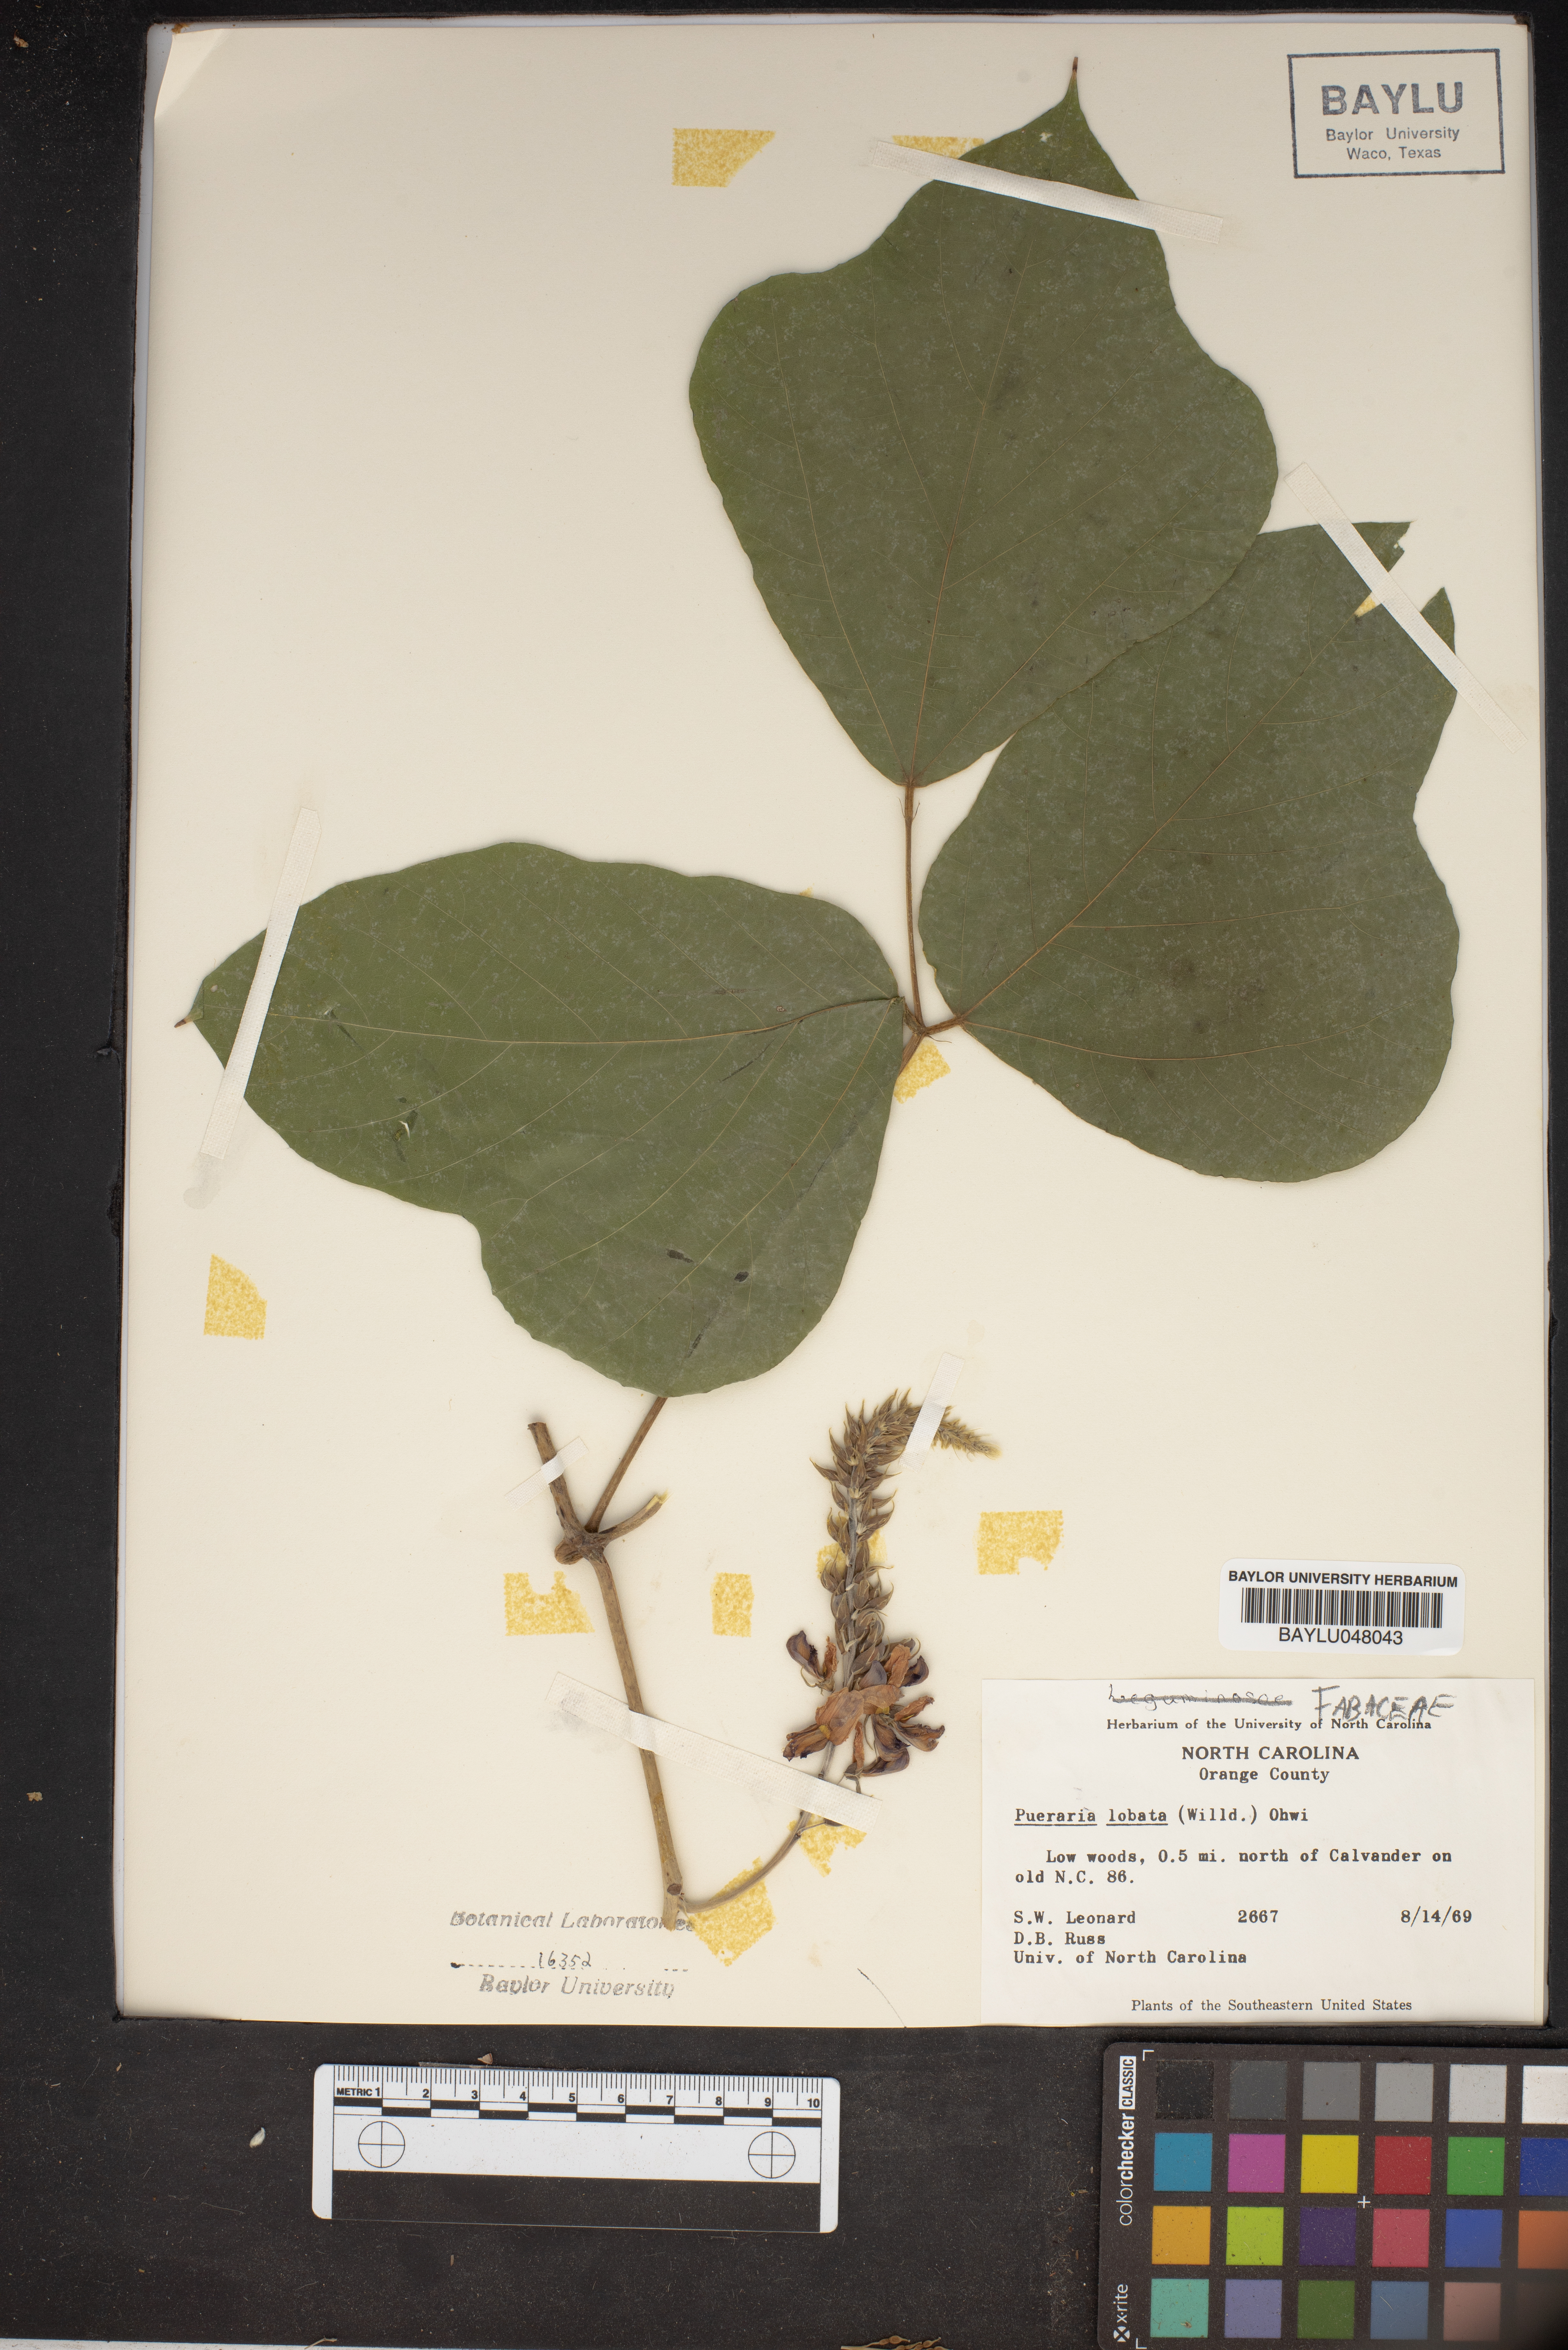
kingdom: Plantae
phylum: Tracheophyta
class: Magnoliopsida
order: Fabales
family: Fabaceae
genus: Pueraria
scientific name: Pueraria montana
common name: Kudzu
